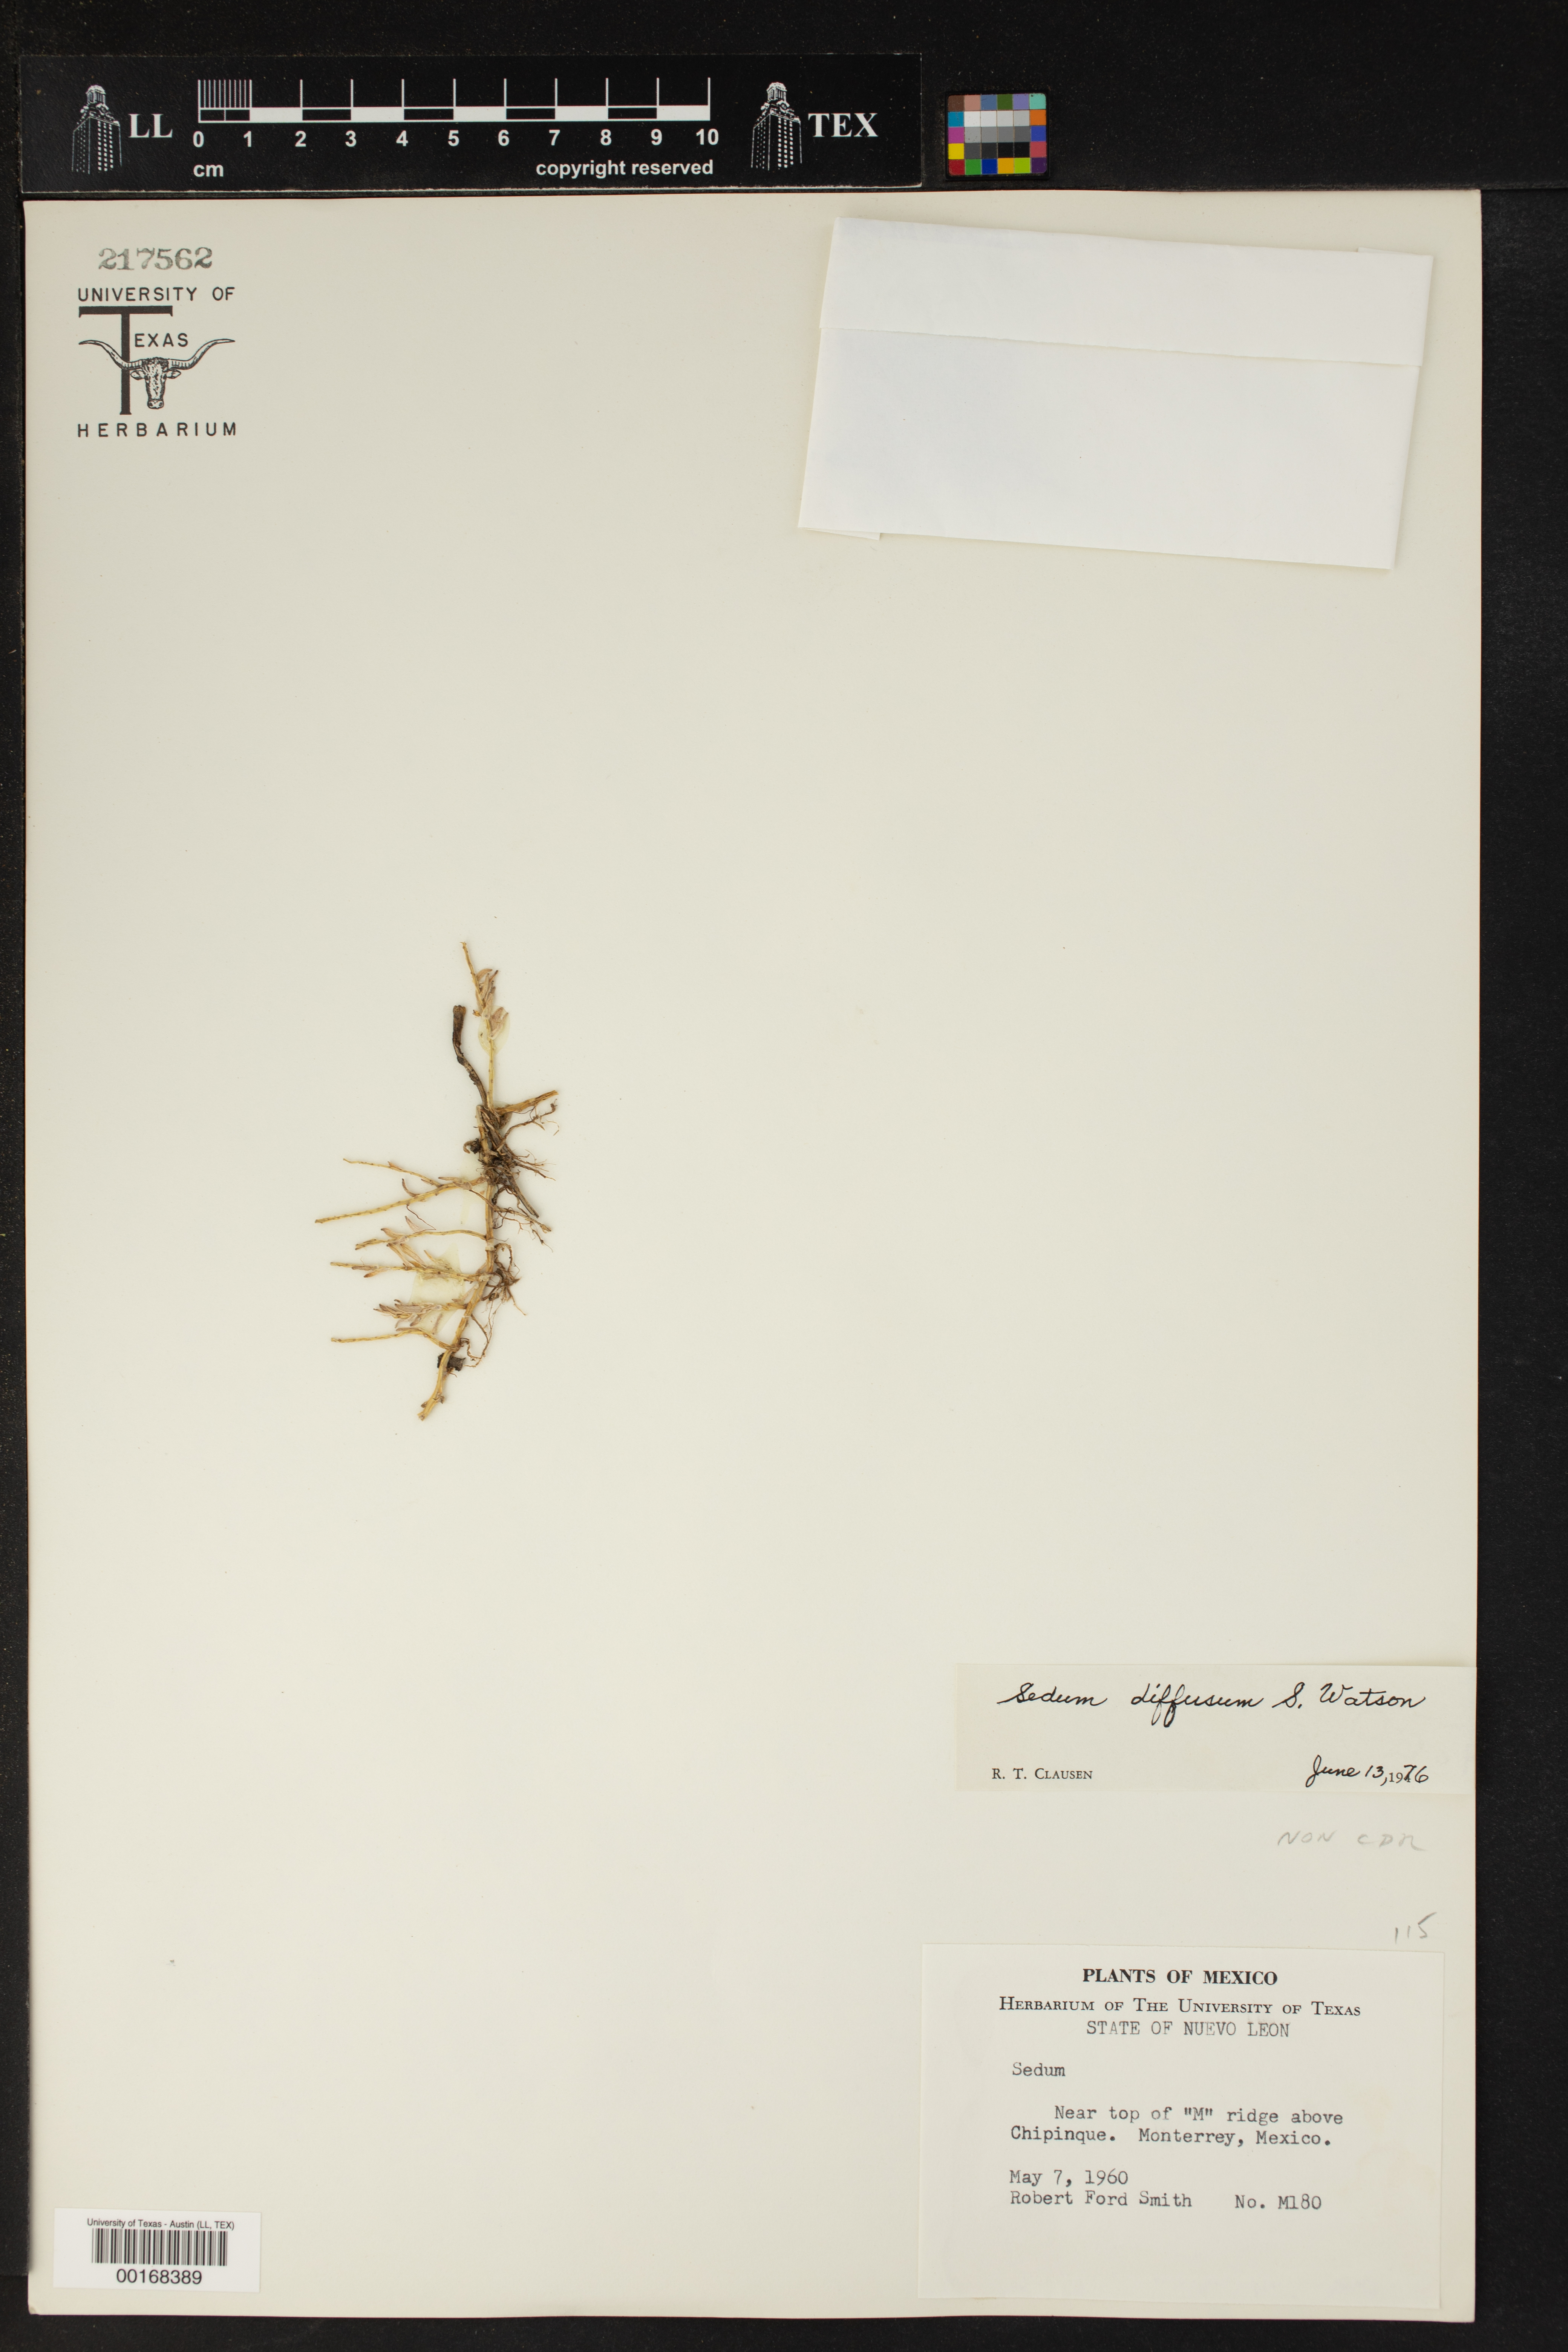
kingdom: Plantae
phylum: Tracheophyta
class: Magnoliopsida
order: Saxifragales
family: Crassulaceae
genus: Sedum
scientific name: Sedum diffusum
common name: Stonecrop
